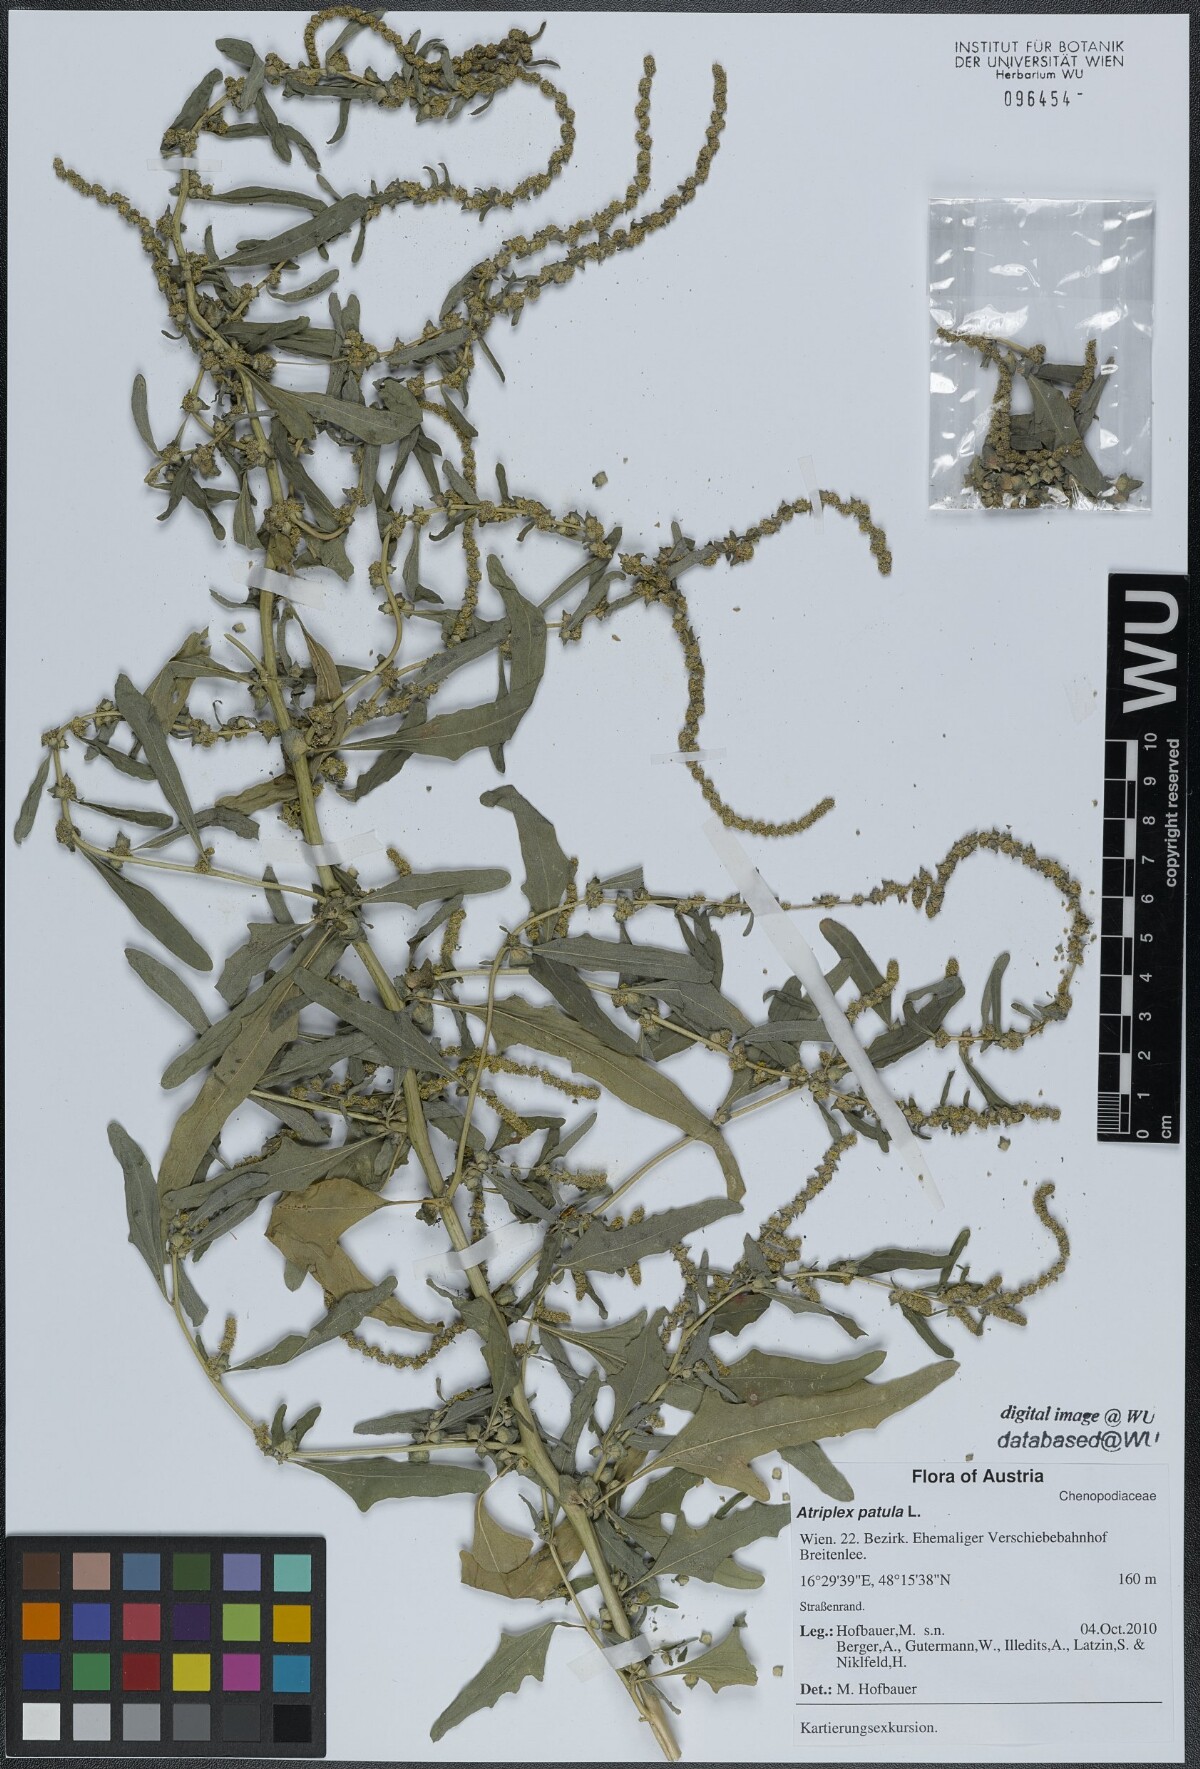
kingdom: Plantae
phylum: Tracheophyta
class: Magnoliopsida
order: Caryophyllales
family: Amaranthaceae
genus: Atriplex
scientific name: Atriplex patula
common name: Common orache
